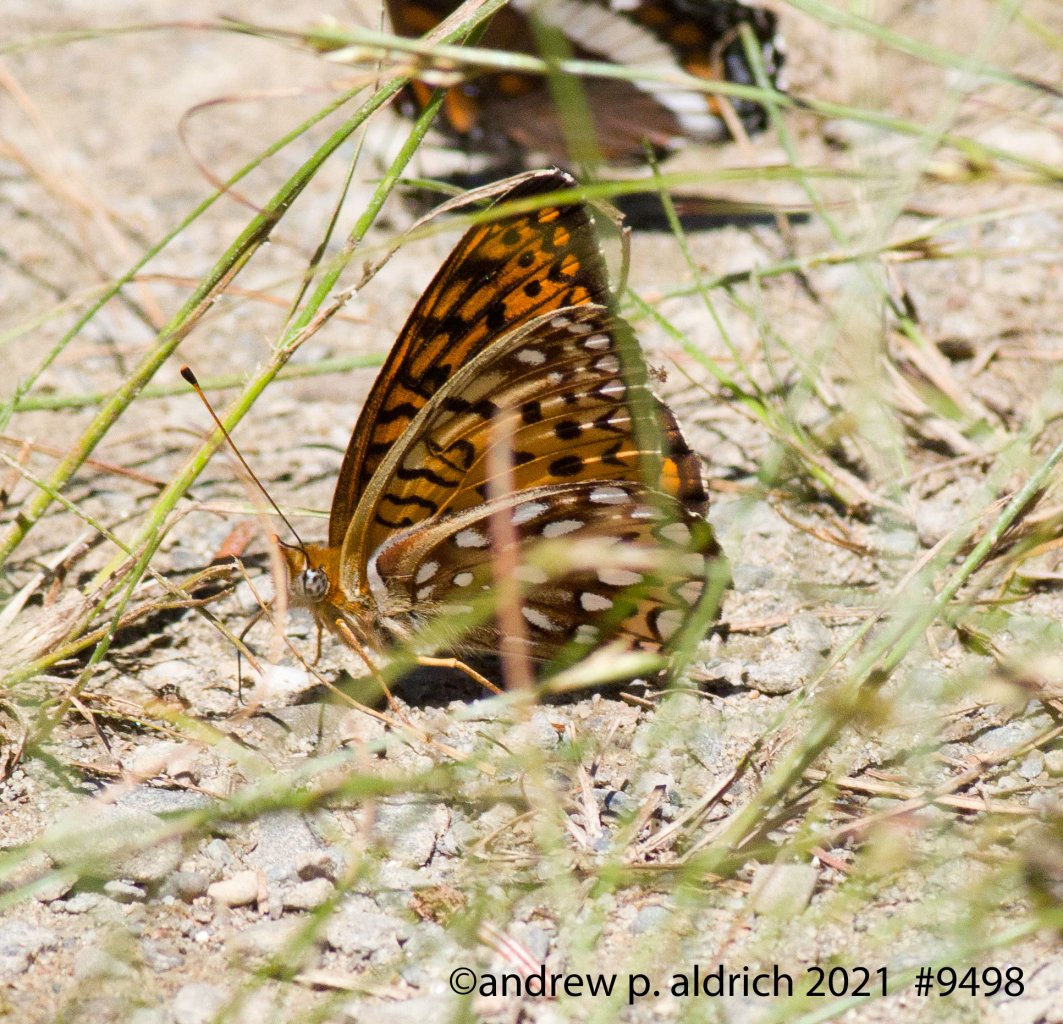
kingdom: Animalia
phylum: Arthropoda
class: Insecta
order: Lepidoptera
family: Nymphalidae
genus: Speyeria
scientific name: Speyeria atlantis
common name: Atlantis Fritillary
